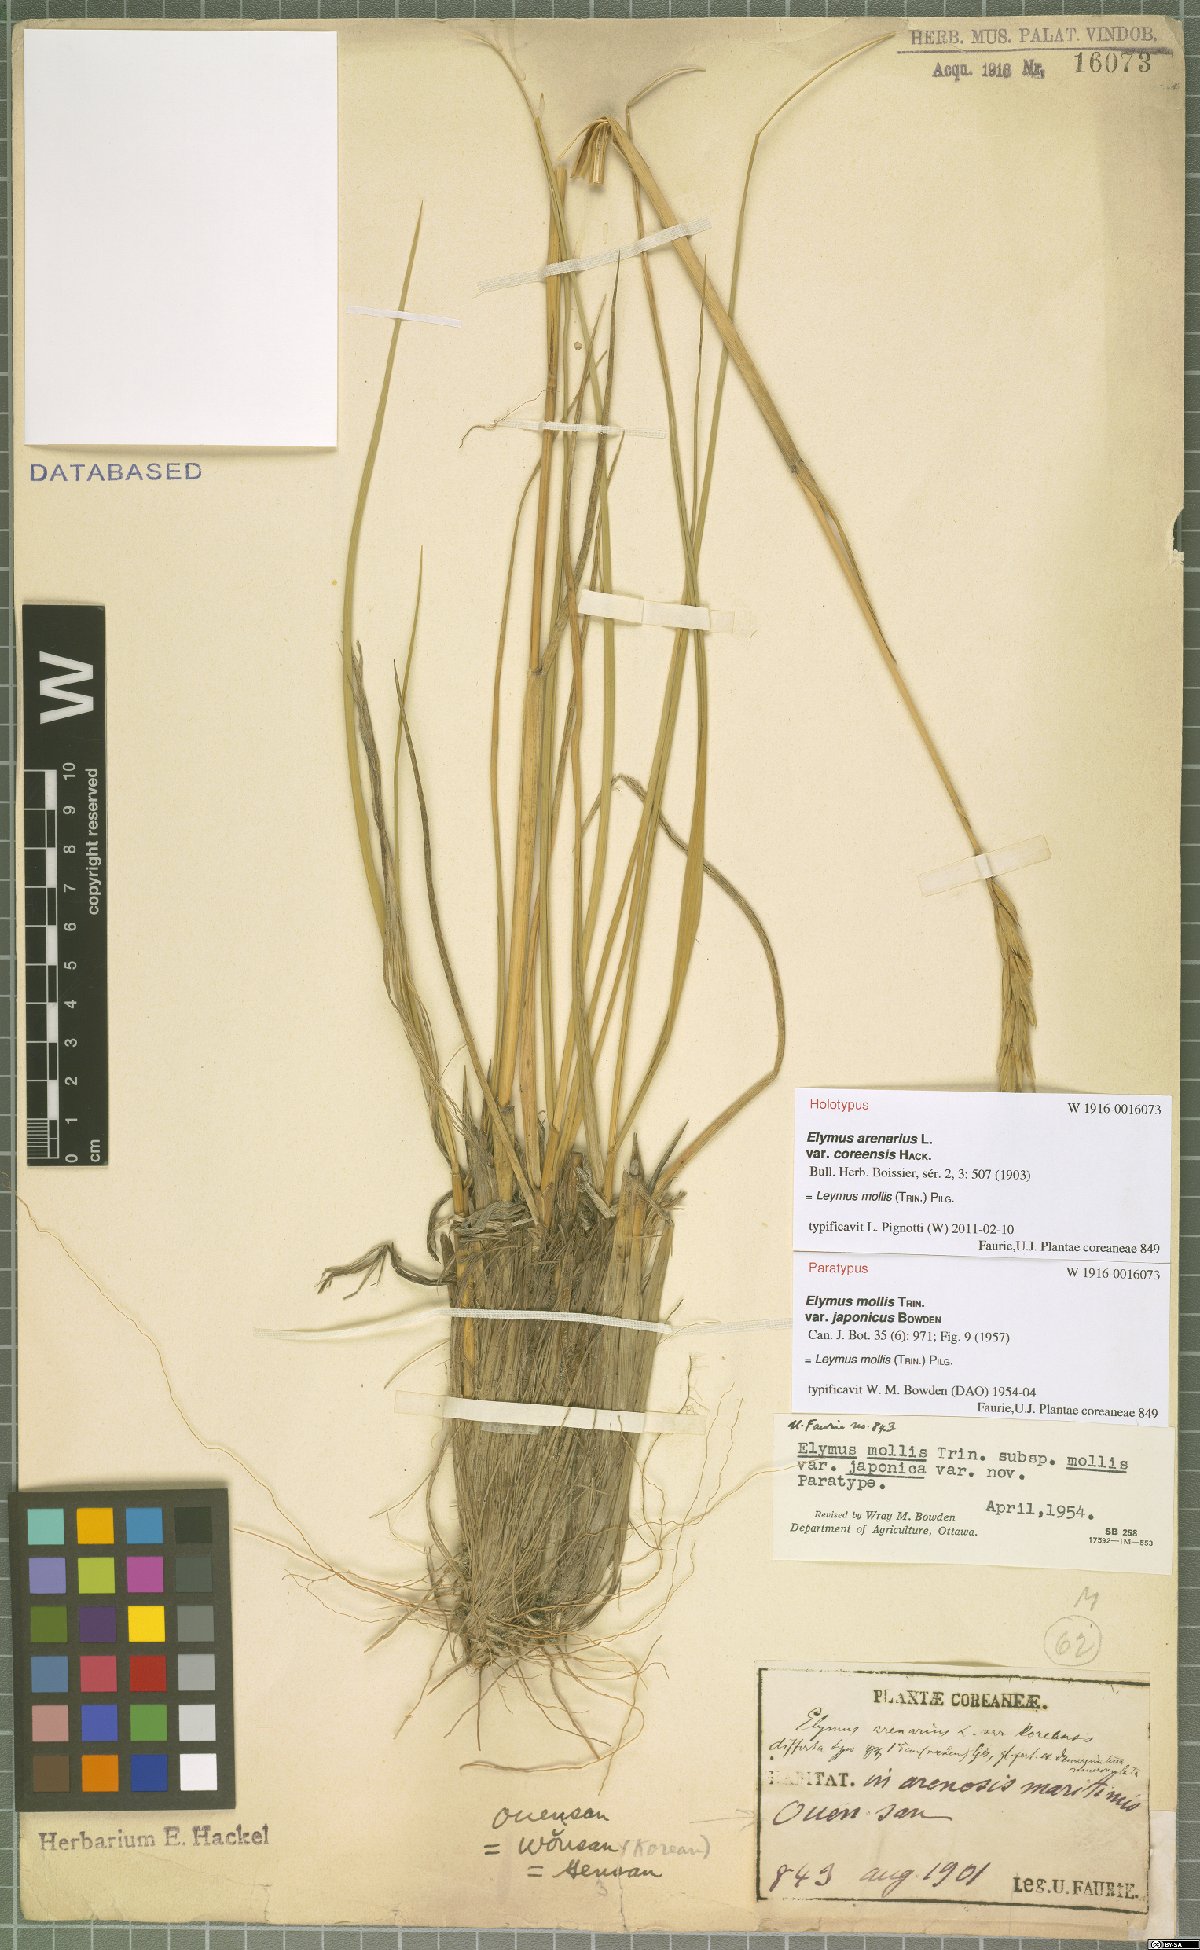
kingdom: Plantae
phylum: Tracheophyta
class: Liliopsida
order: Poales
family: Poaceae
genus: Leymus
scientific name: Leymus mollis
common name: American dune grass
